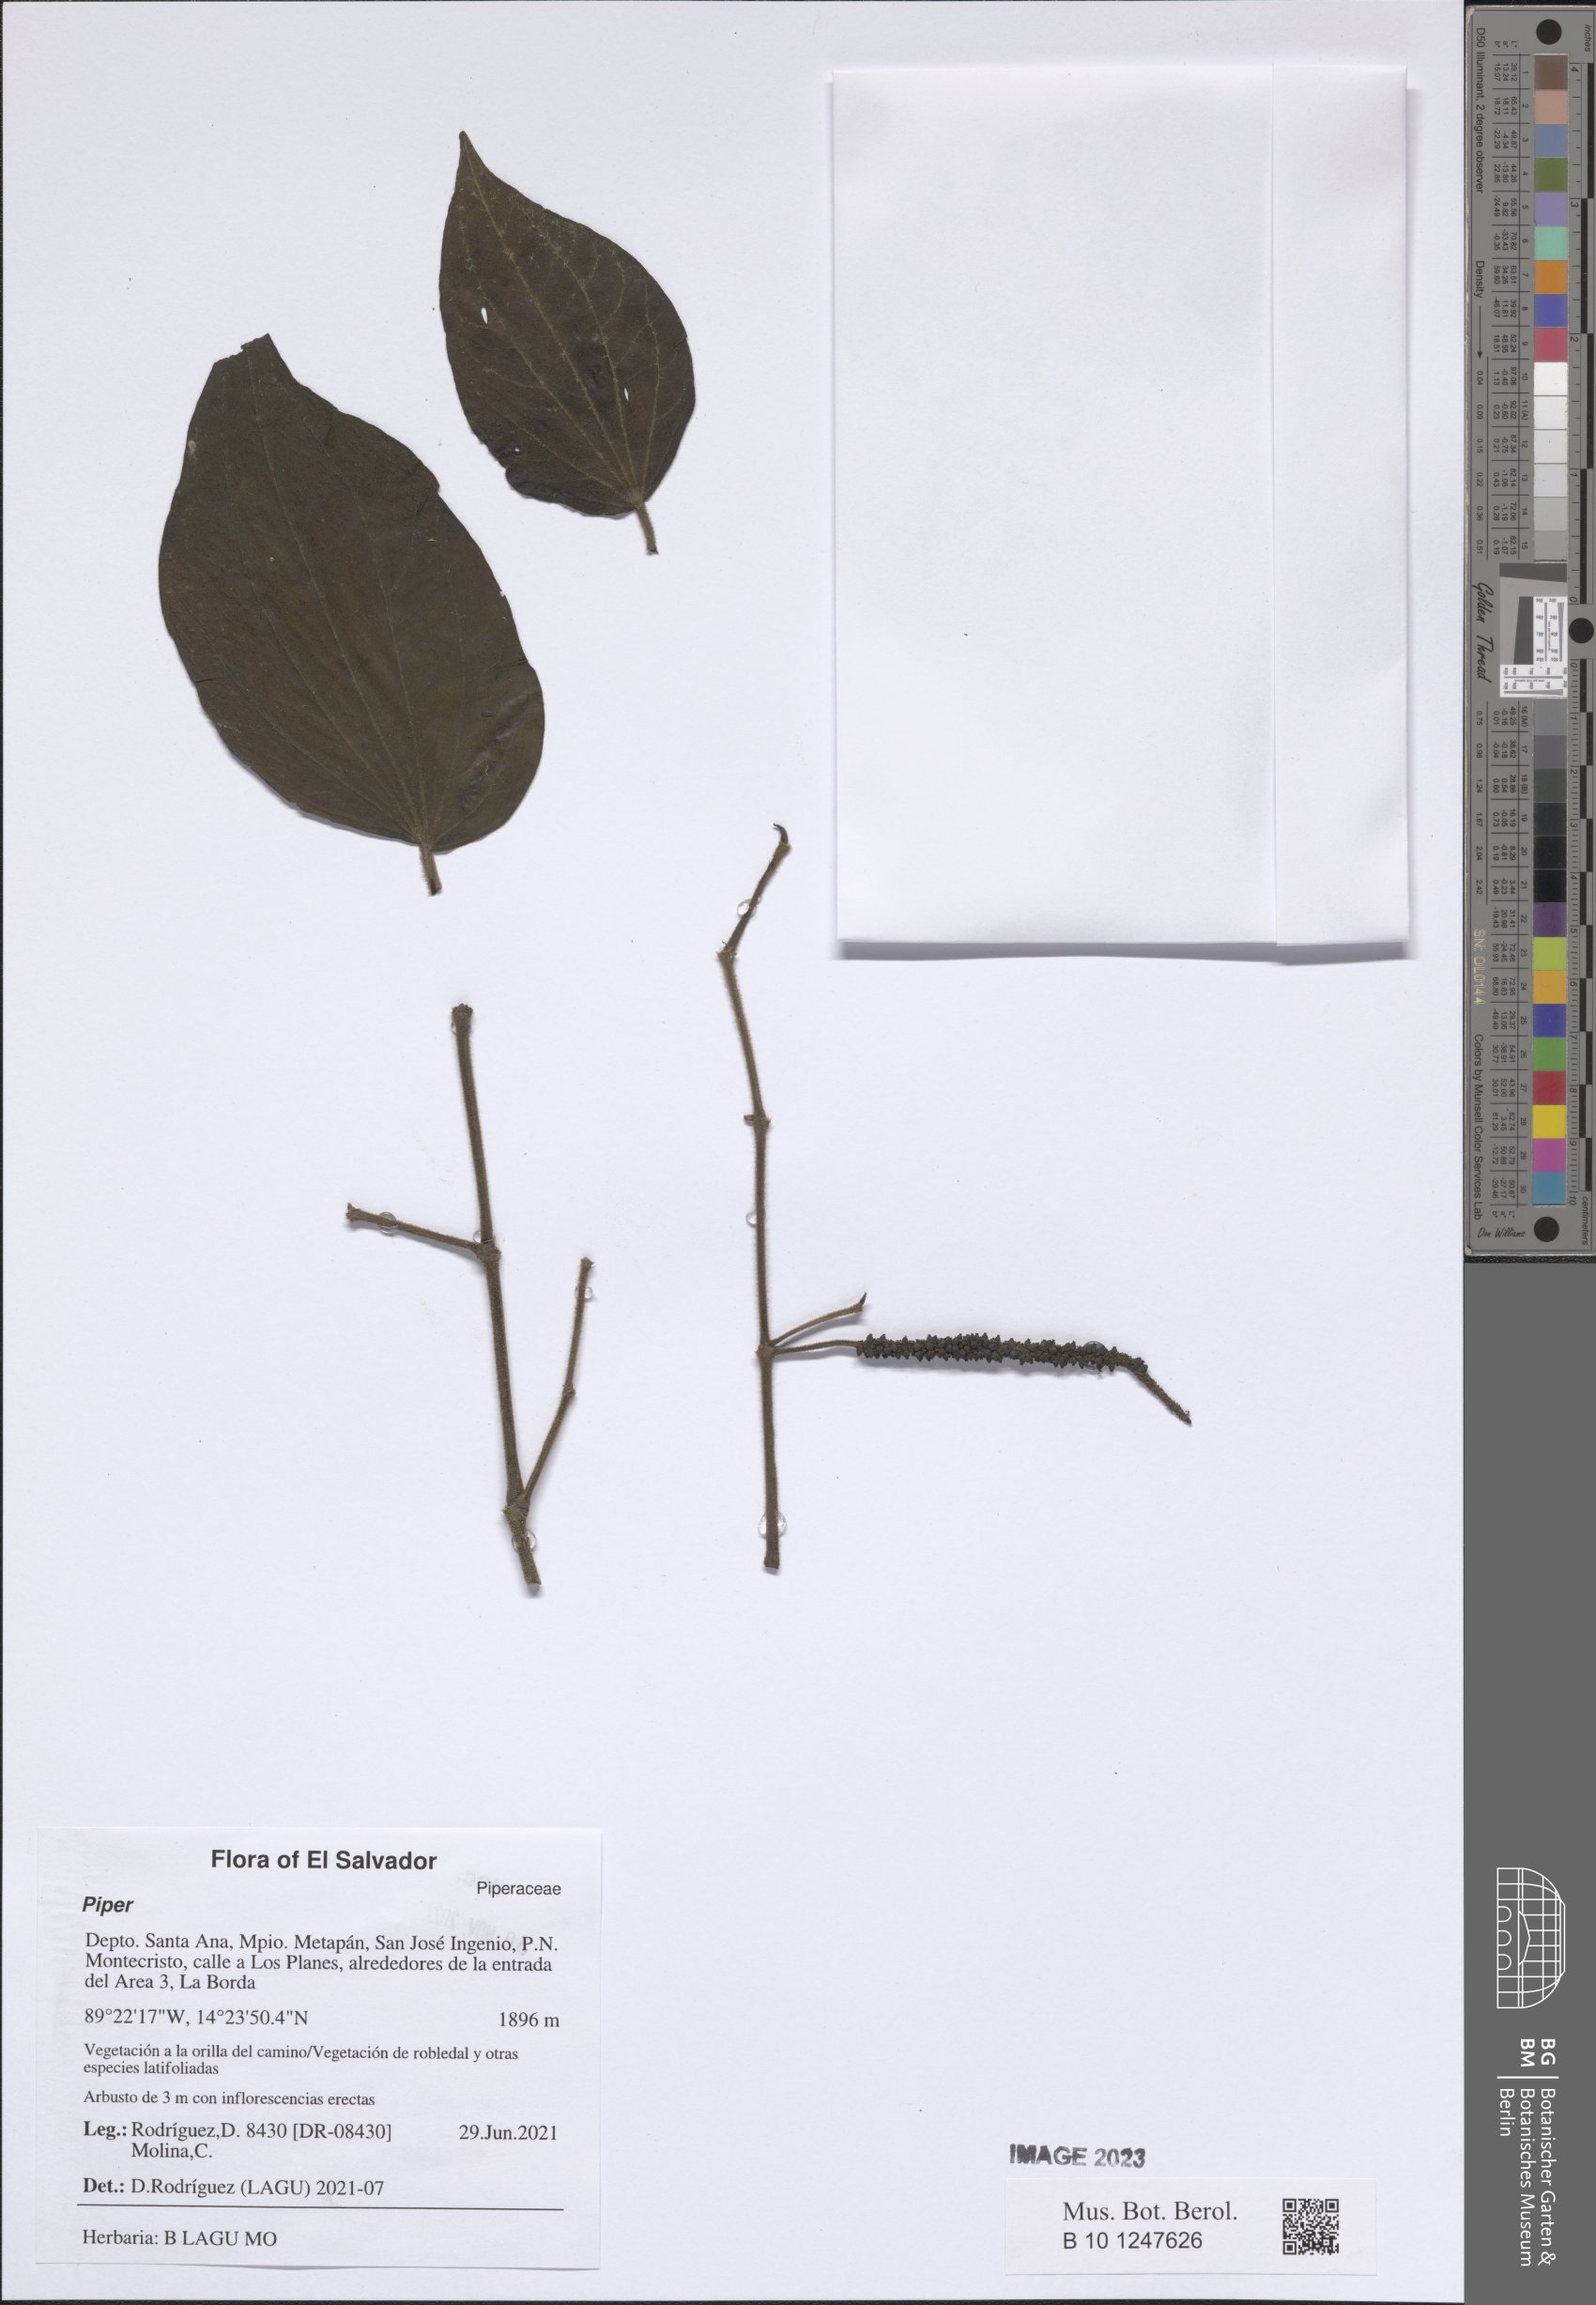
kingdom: Plantae
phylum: Tracheophyta
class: Magnoliopsida
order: Piperales
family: Piperaceae
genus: Piper
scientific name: Piper
